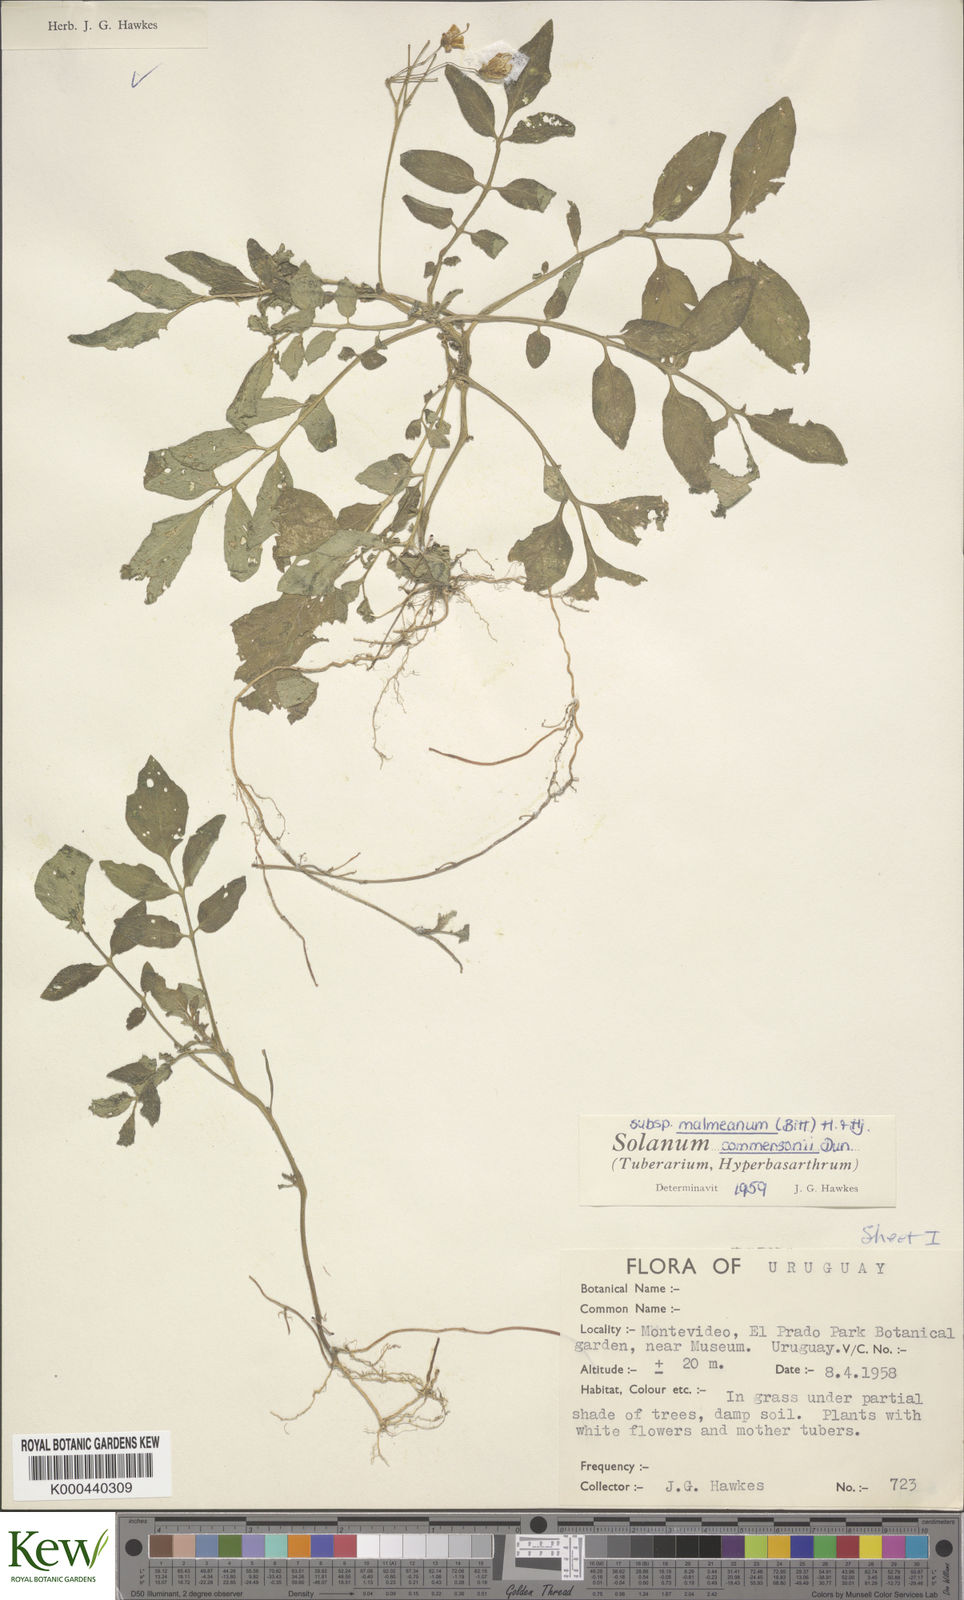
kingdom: Plantae
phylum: Tracheophyta
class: Magnoliopsida
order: Solanales
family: Solanaceae
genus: Solanum
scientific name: Solanum commersonii
